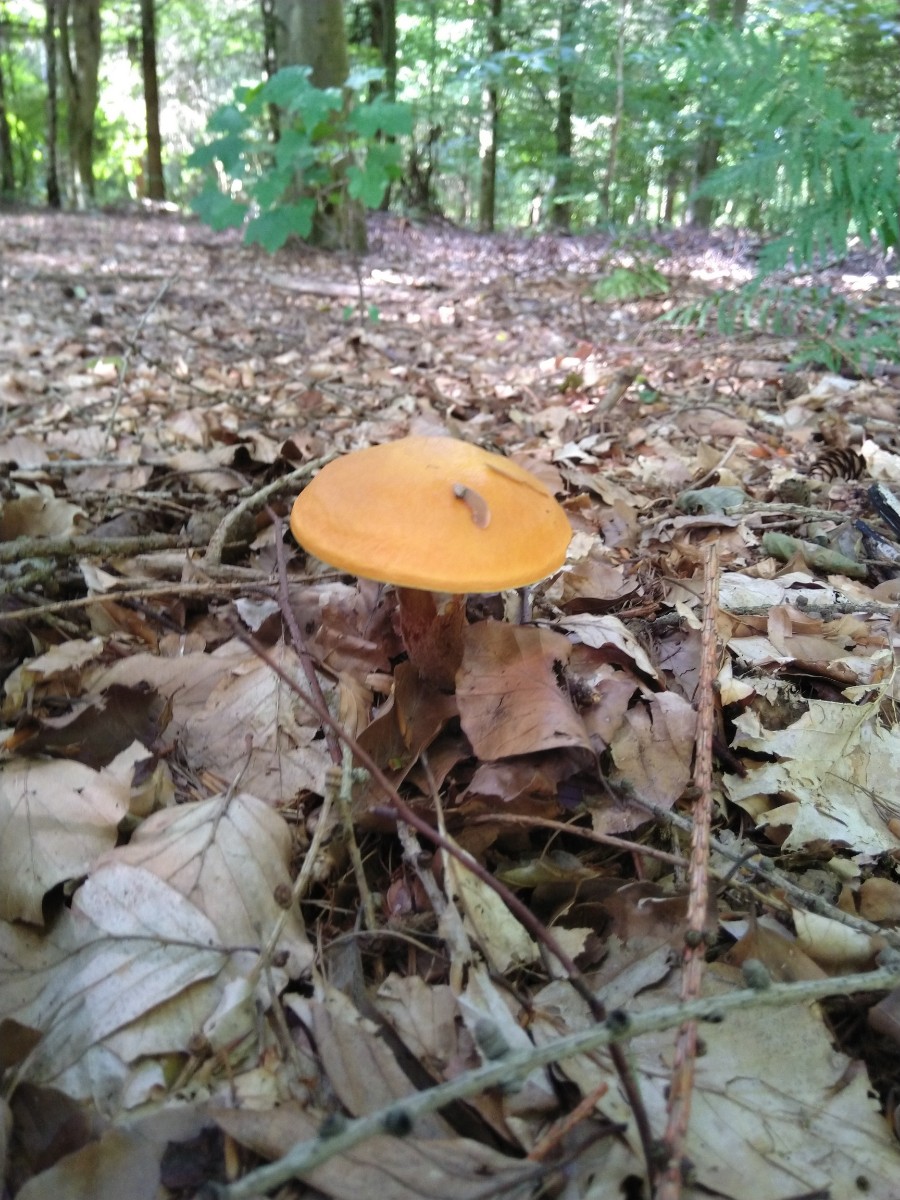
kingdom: Fungi
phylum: Basidiomycota
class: Agaricomycetes
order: Boletales
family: Suillaceae
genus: Suillus
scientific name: Suillus grevillei
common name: lærke-slimrørhat
